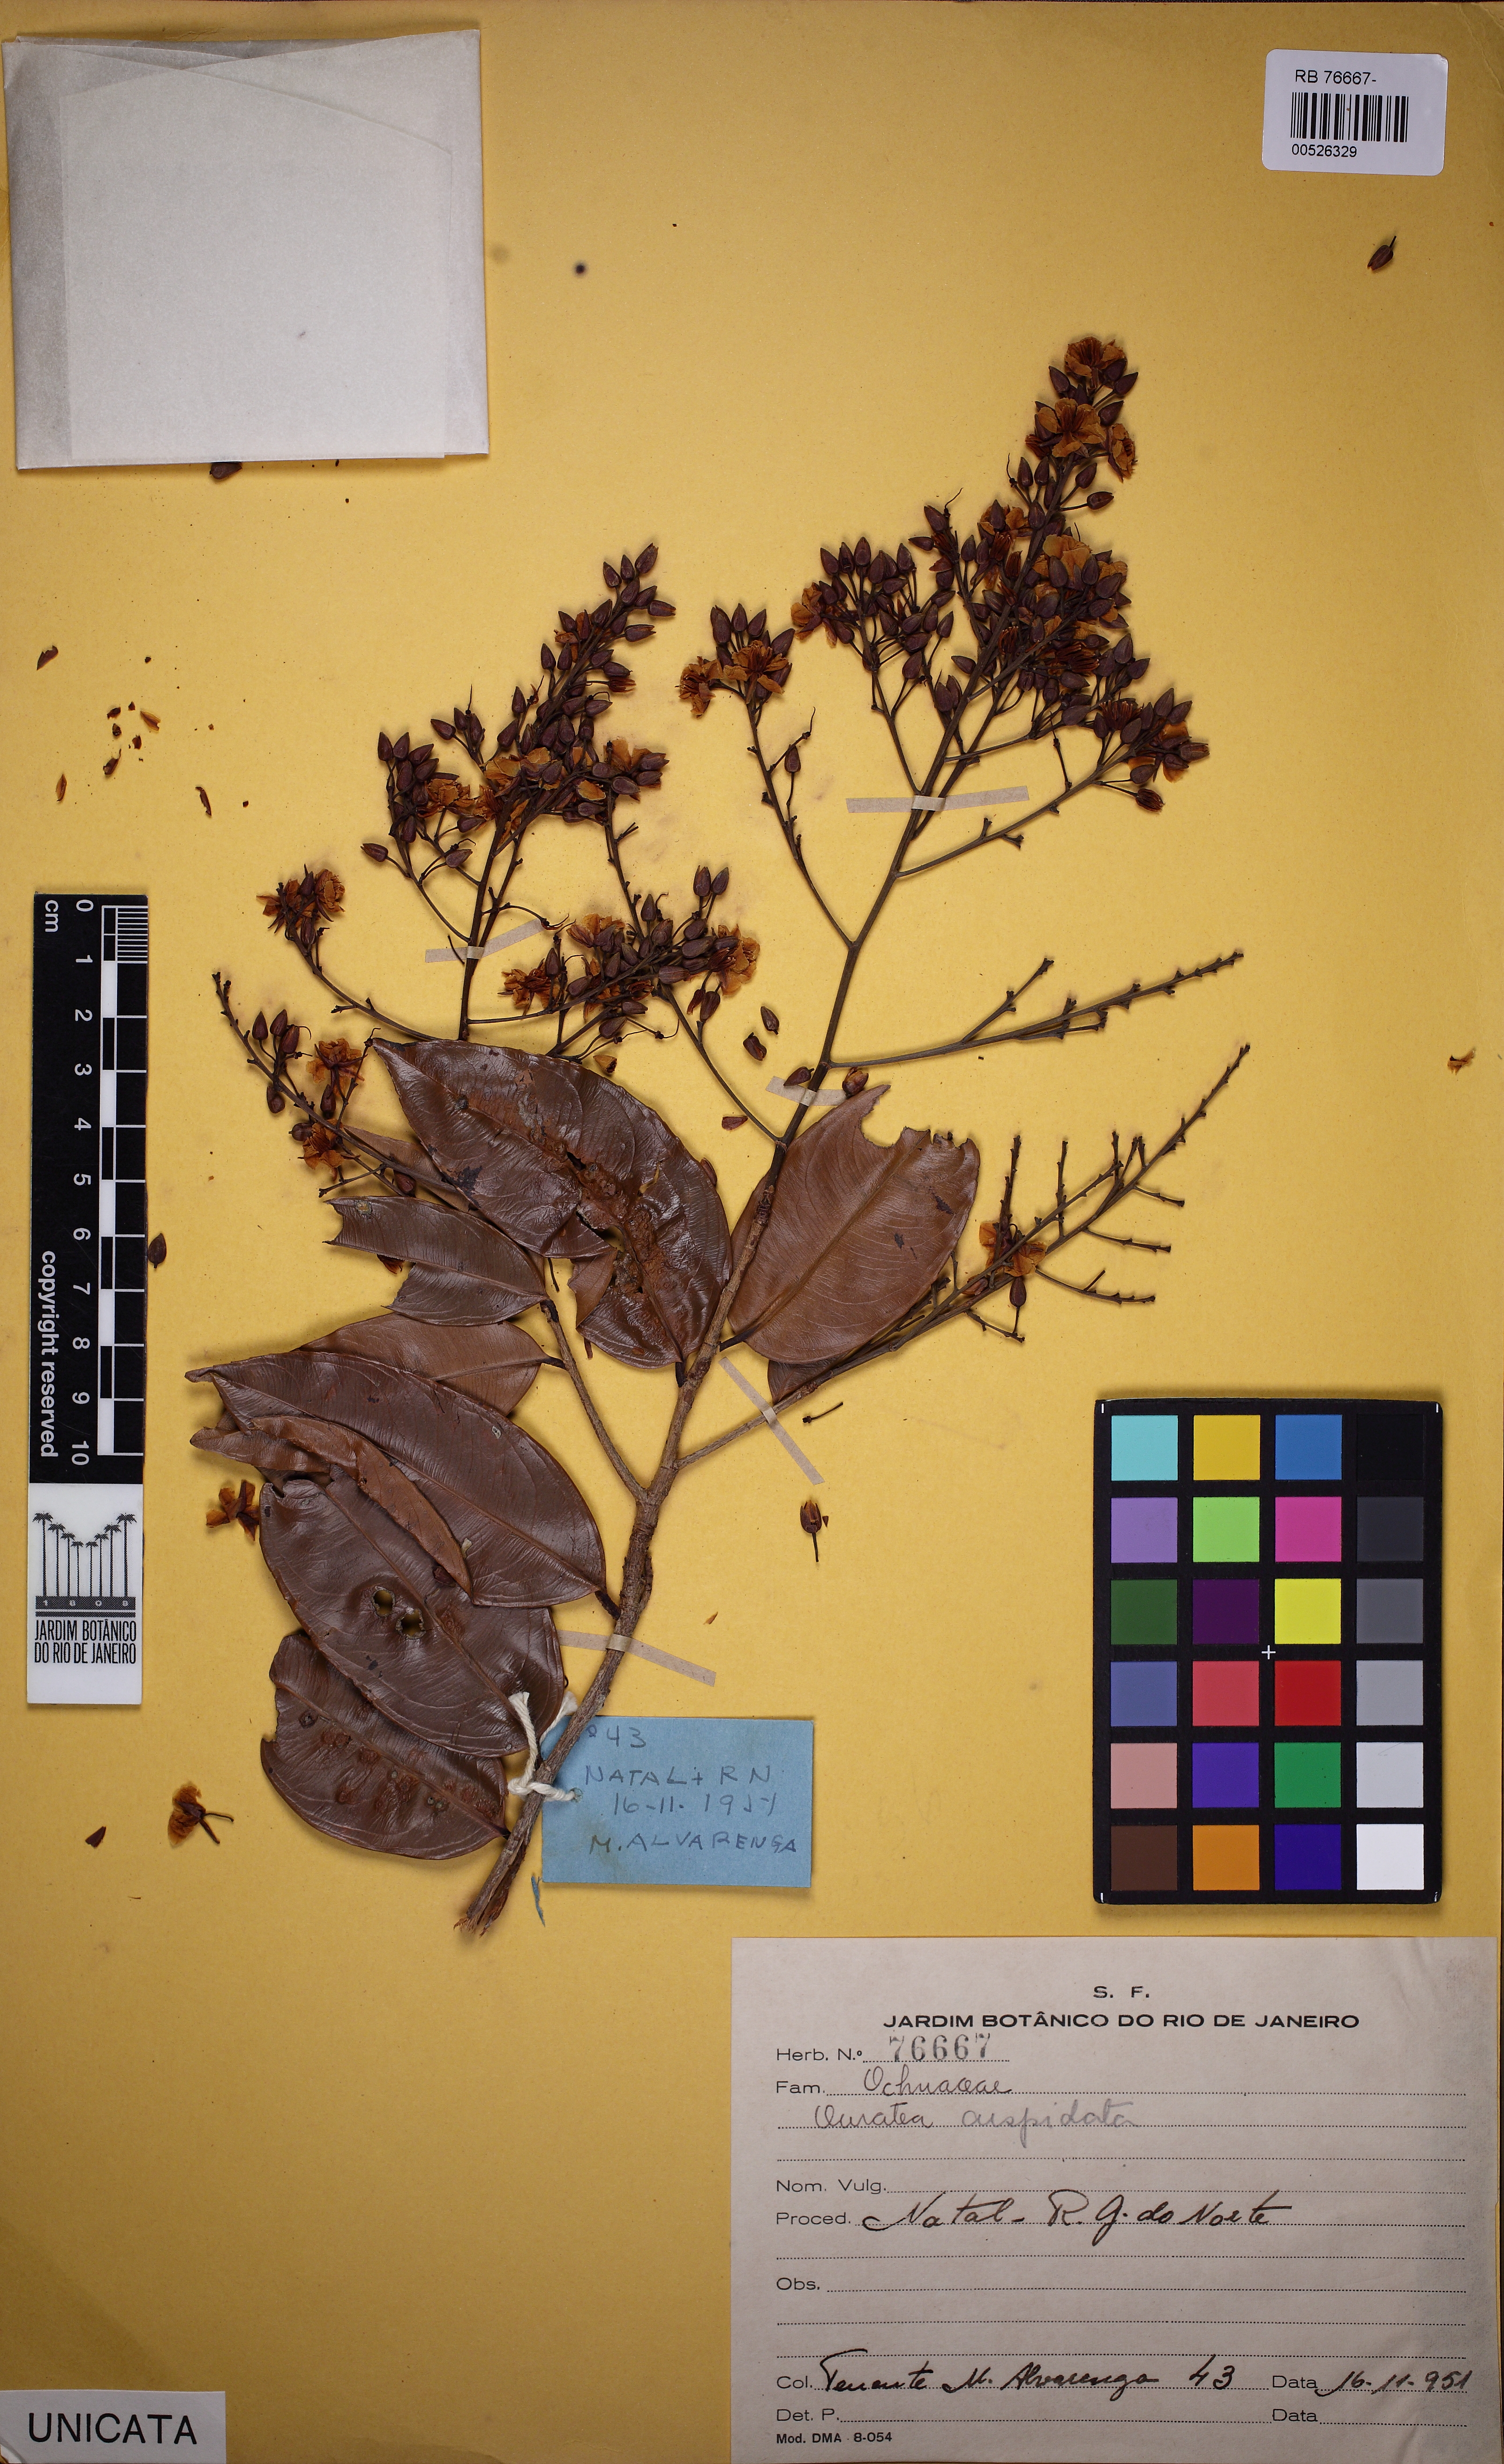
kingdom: Plantae
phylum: Tracheophyta
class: Magnoliopsida
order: Malpighiales
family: Ochnaceae
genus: Ouratea
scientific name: Ouratea cuspidata
